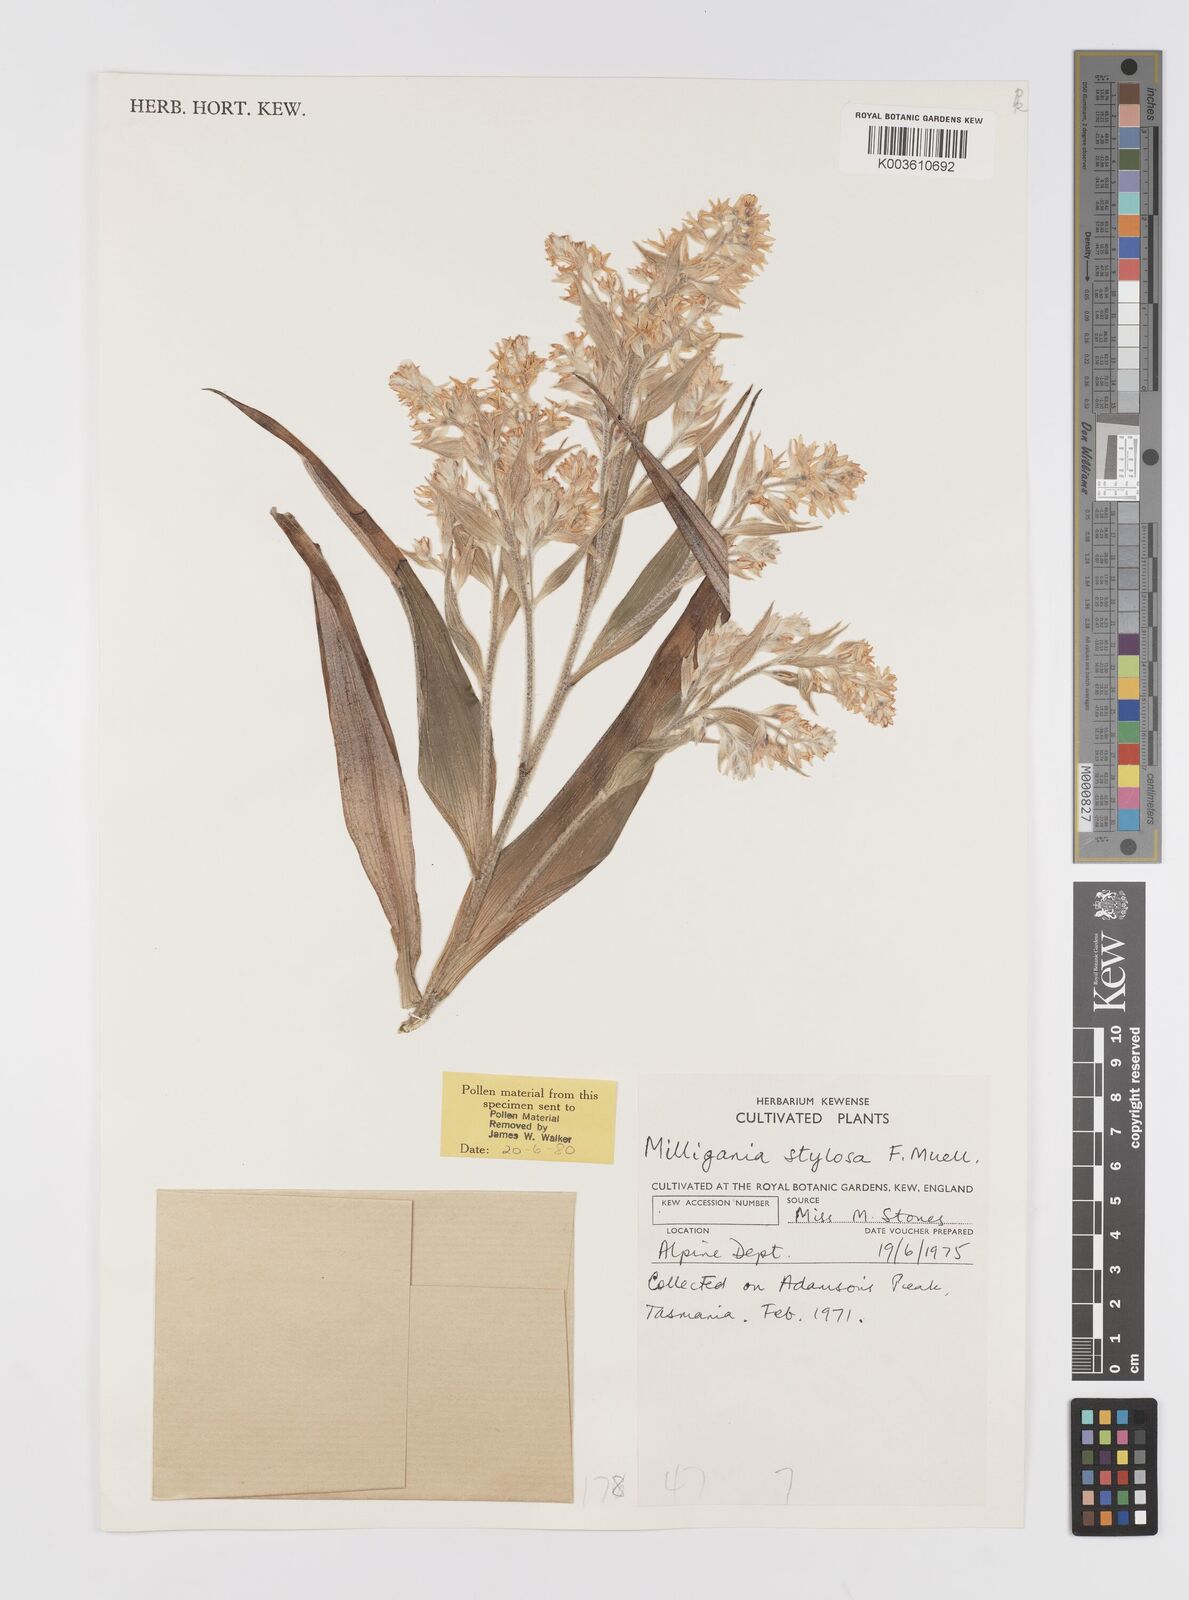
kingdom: Plantae
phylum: Tracheophyta
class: Liliopsida
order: Asparagales
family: Asteliaceae
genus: Milligania
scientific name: Milligania stylosa
